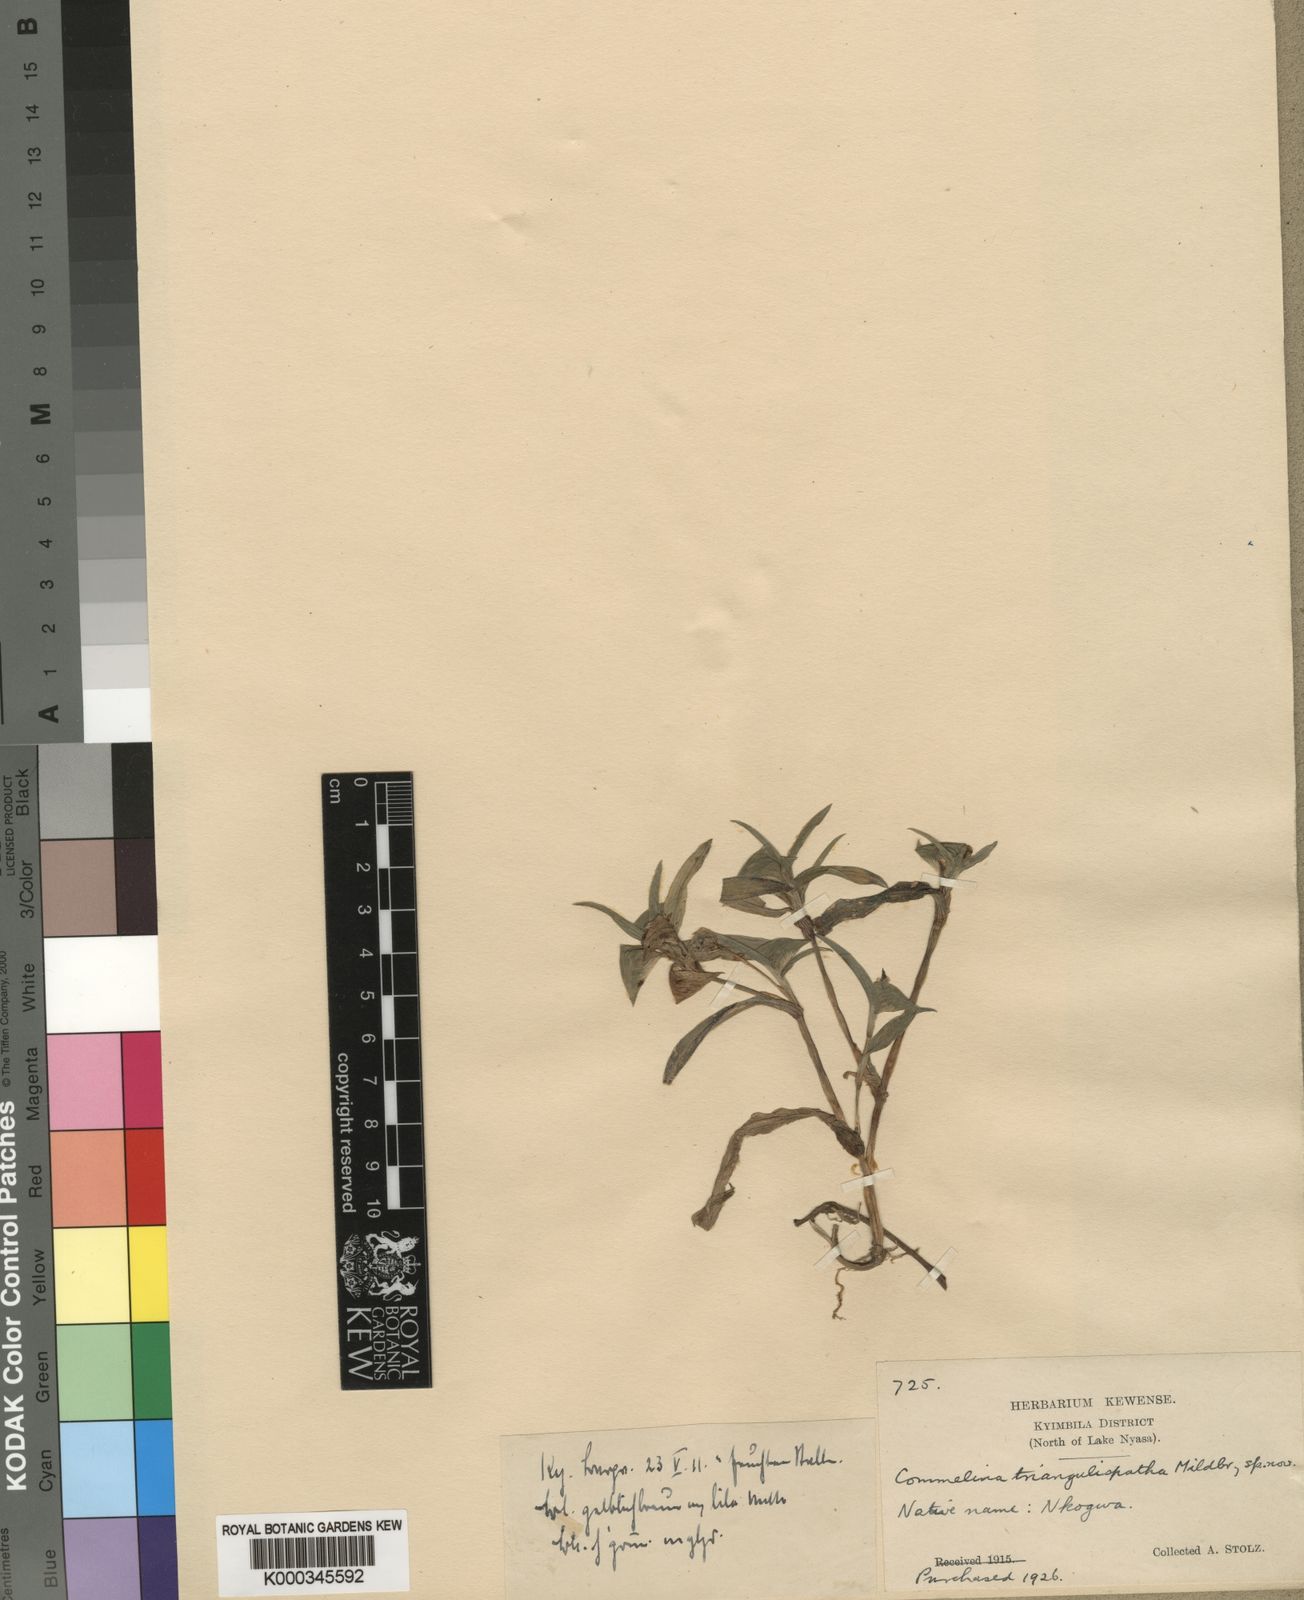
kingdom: Plantae
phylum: Tracheophyta
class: Liliopsida
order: Commelinales
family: Commelinaceae
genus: Commelina
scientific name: Commelina triangulispatha
